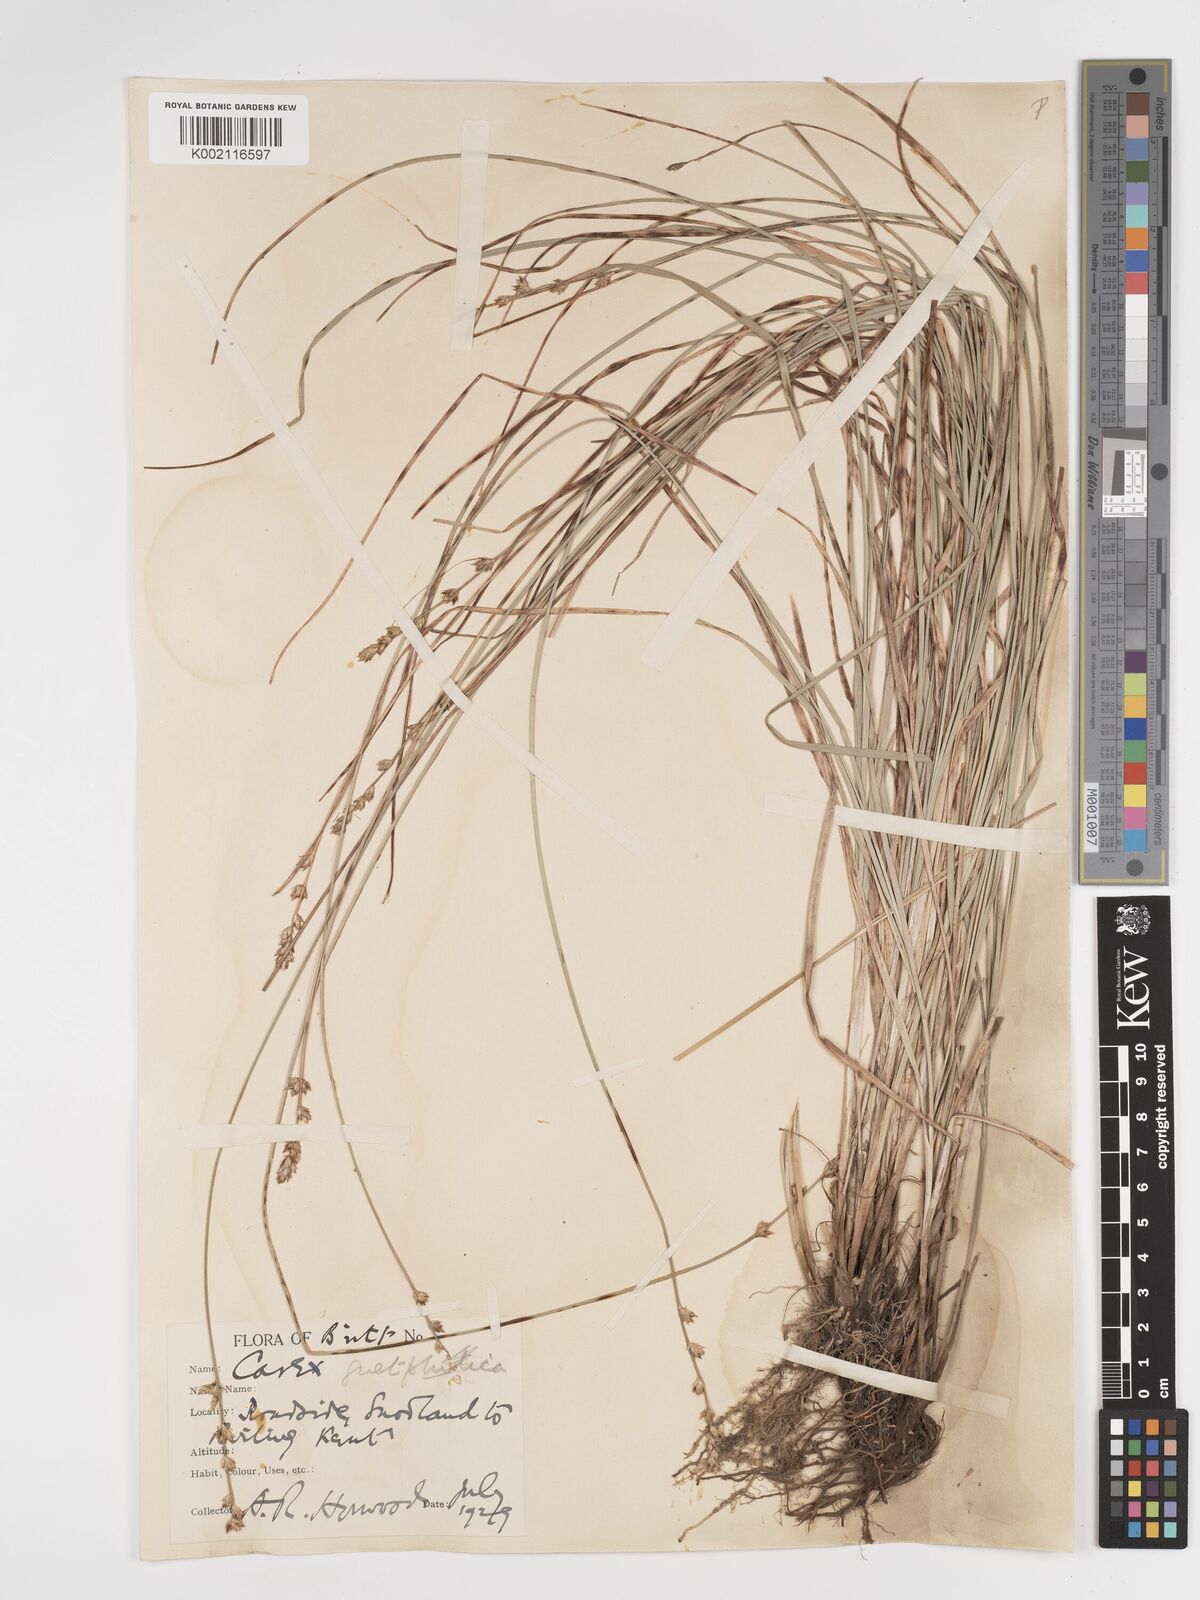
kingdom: Plantae
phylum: Tracheophyta
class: Liliopsida
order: Poales
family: Cyperaceae
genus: Carex
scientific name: Carex divulsa
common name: Grassland sedge
